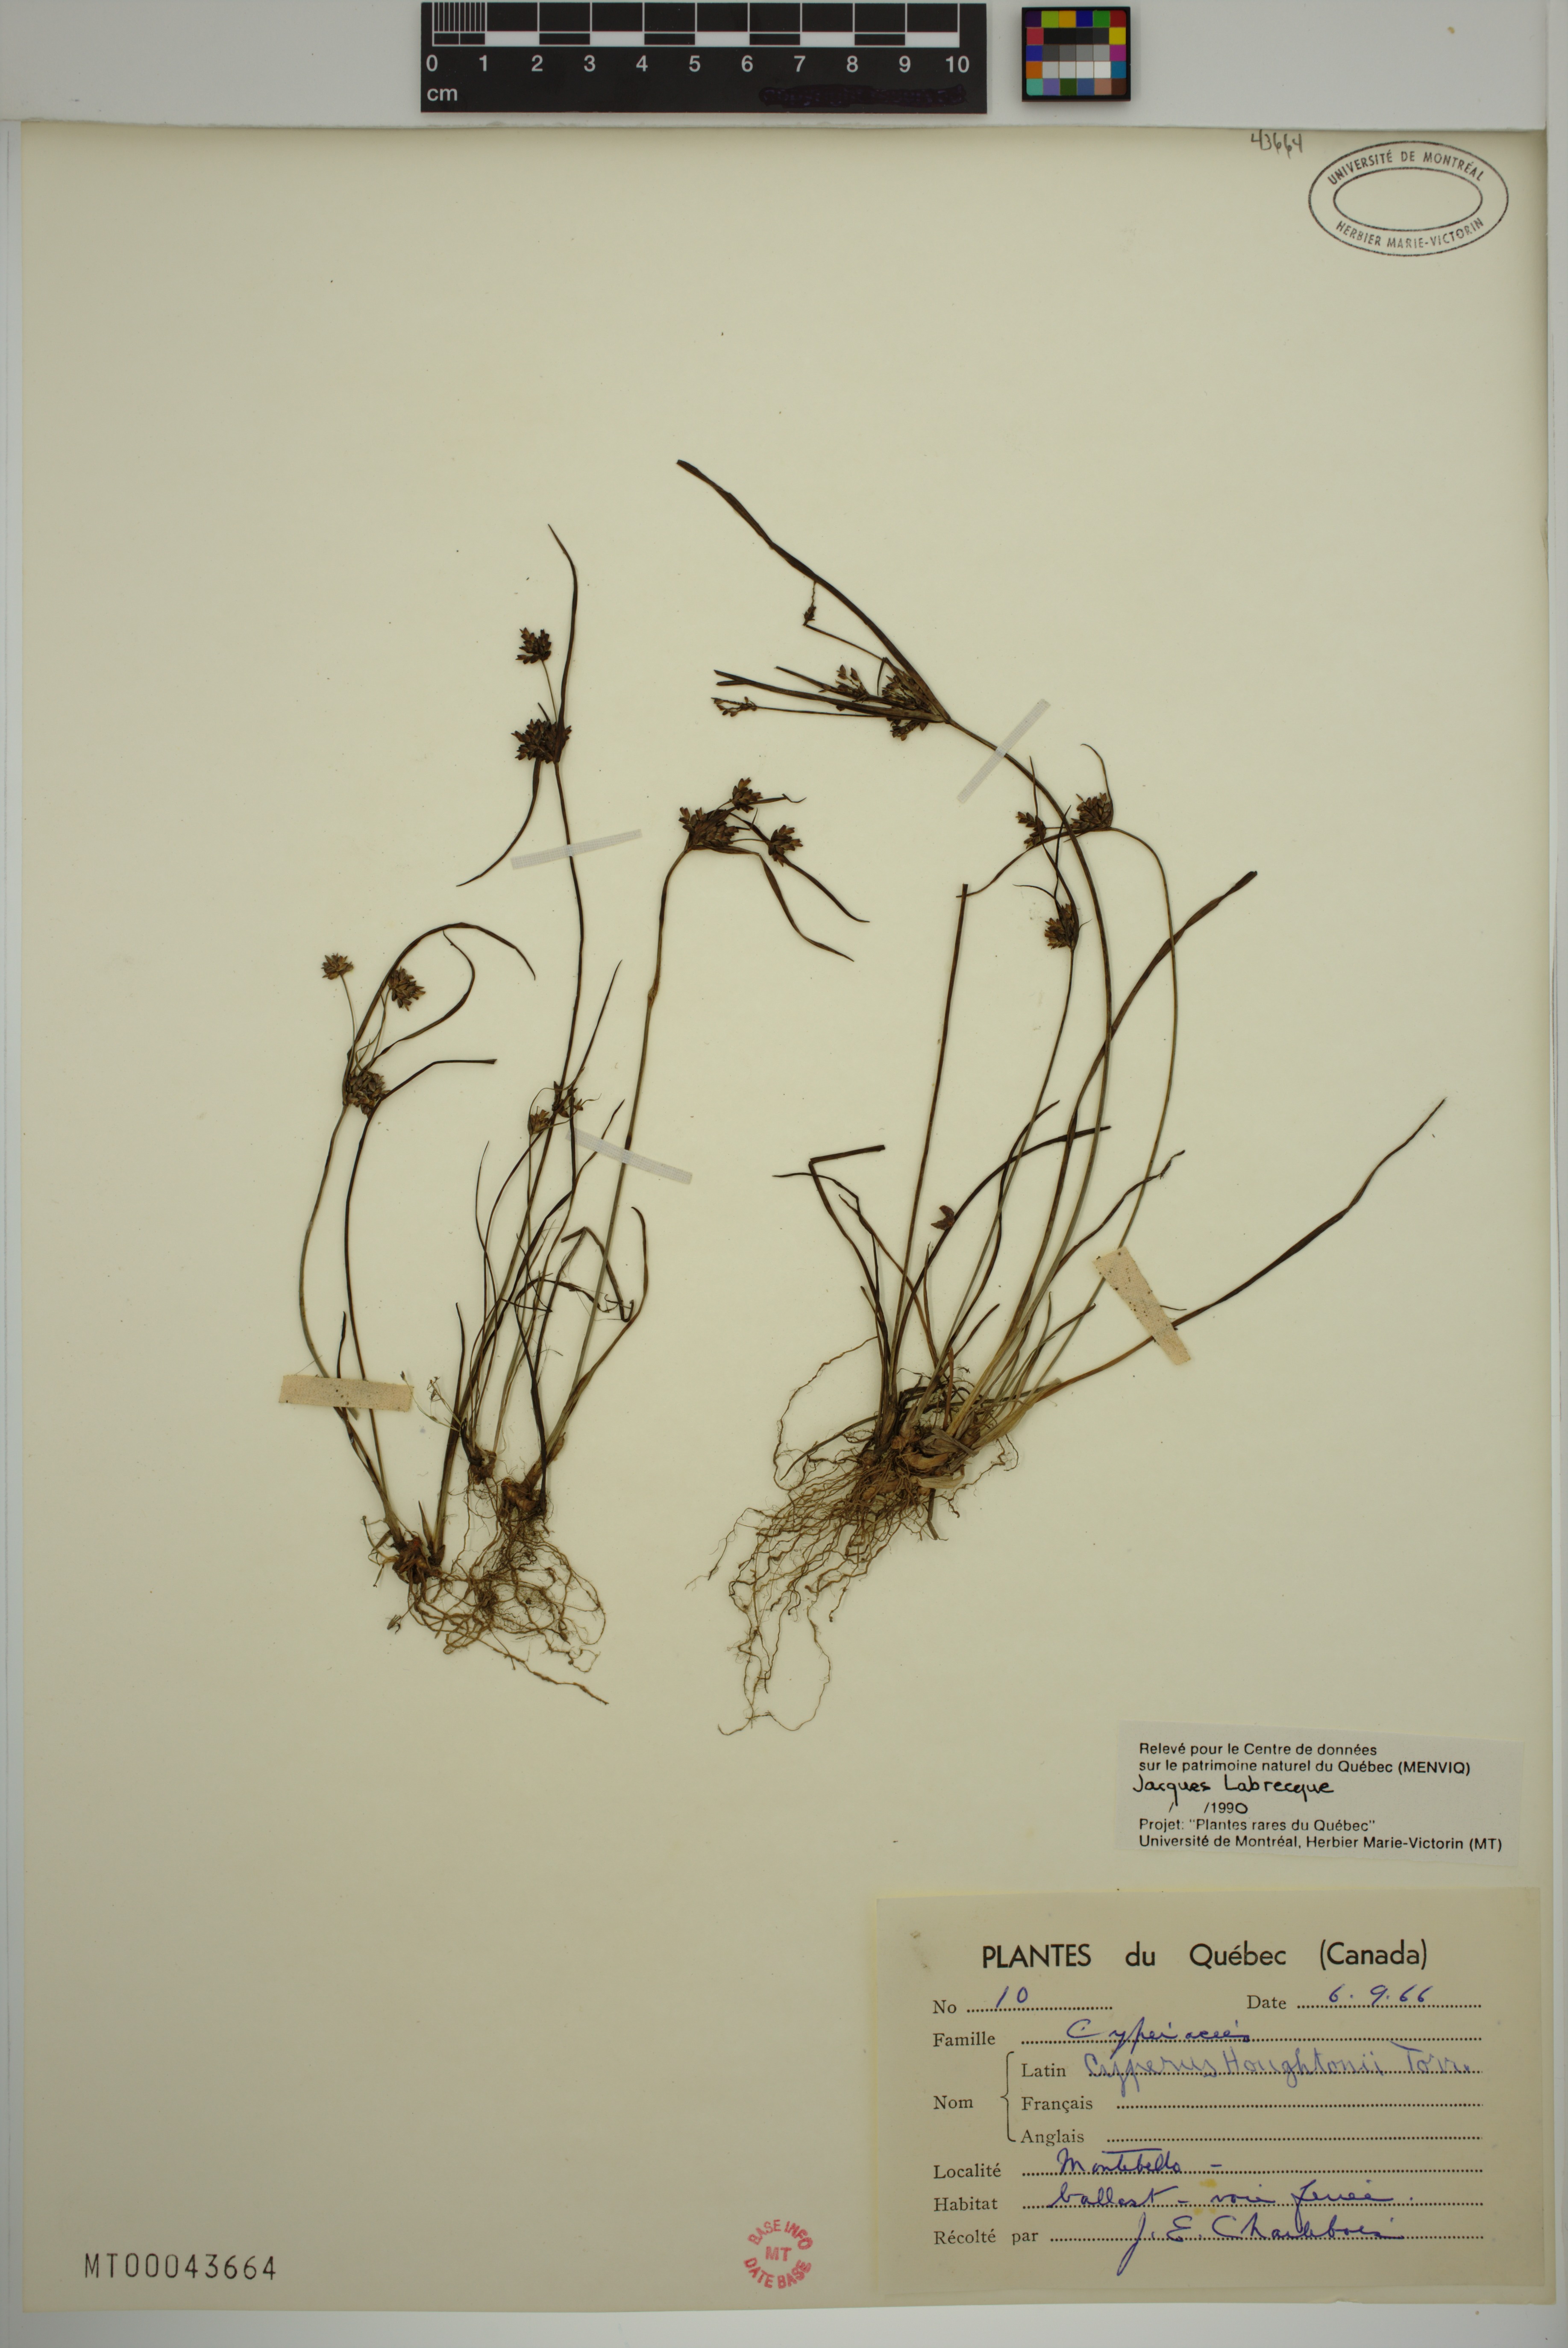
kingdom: Plantae
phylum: Tracheophyta
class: Liliopsida
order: Poales
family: Cyperaceae
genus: Cyperus
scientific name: Cyperus houghtonii
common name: Houghton's cyperus
